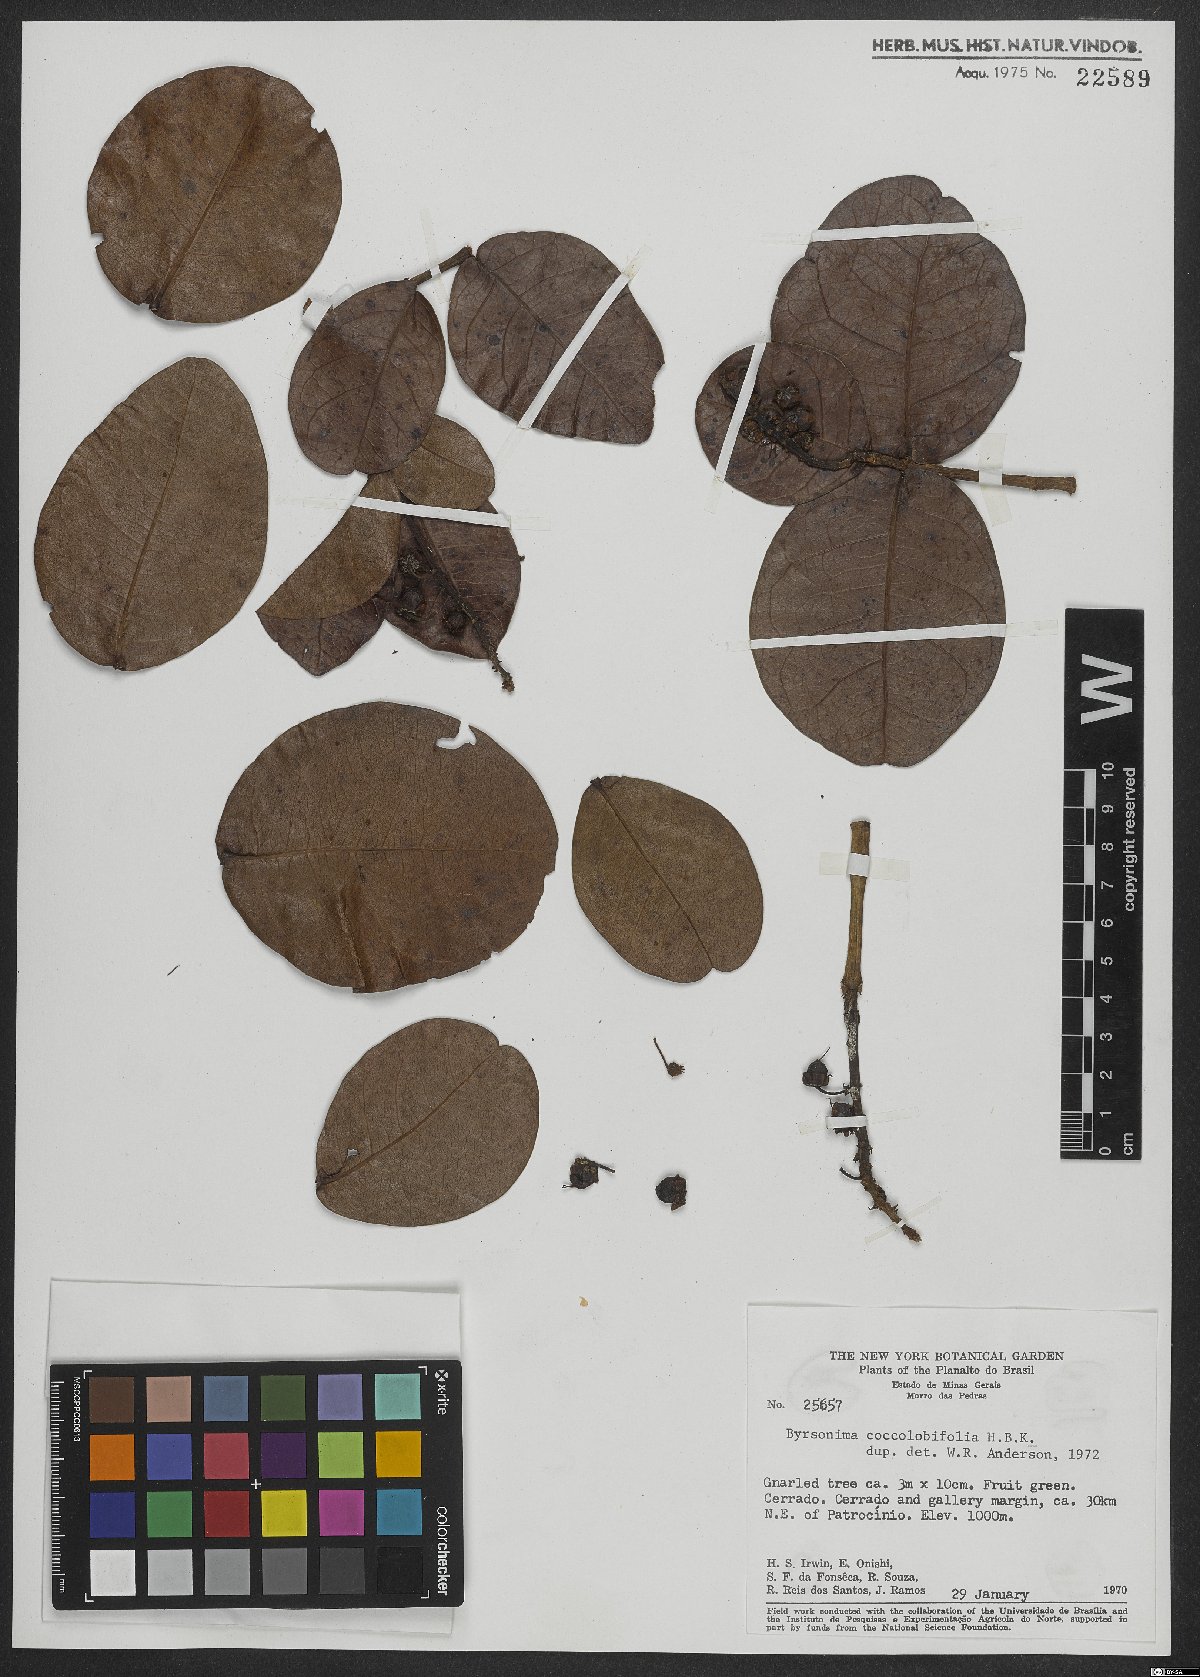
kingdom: Plantae
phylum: Tracheophyta
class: Magnoliopsida
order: Malpighiales
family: Malpighiaceae
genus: Byrsonima
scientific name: Byrsonima coccolobifolia
